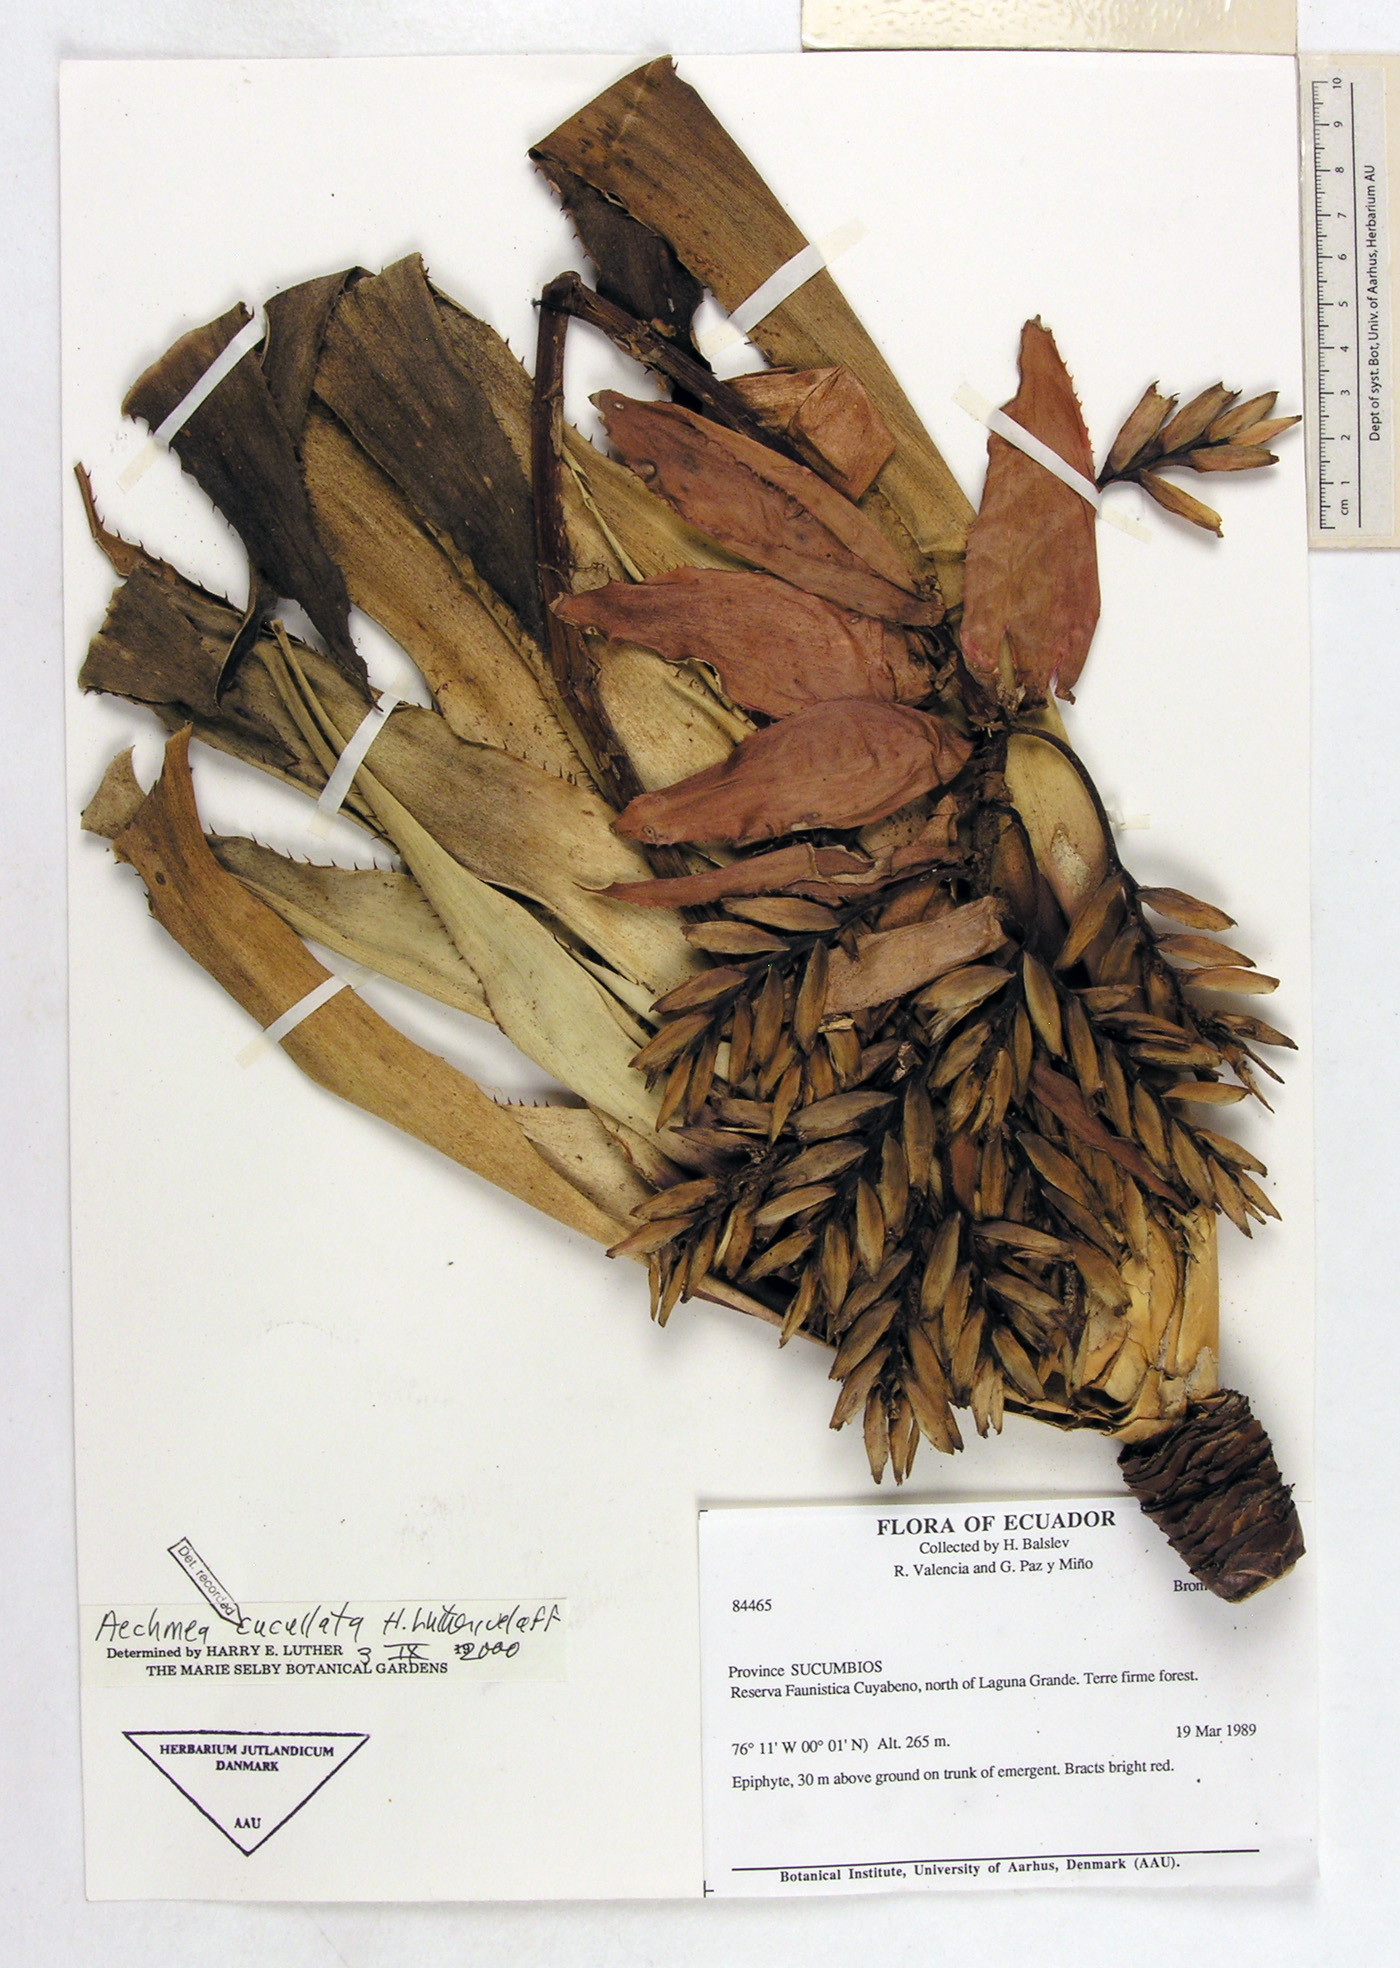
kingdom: Plantae
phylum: Tracheophyta
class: Liliopsida
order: Poales
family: Bromeliaceae
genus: Aechmea
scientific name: Aechmea cucullata
